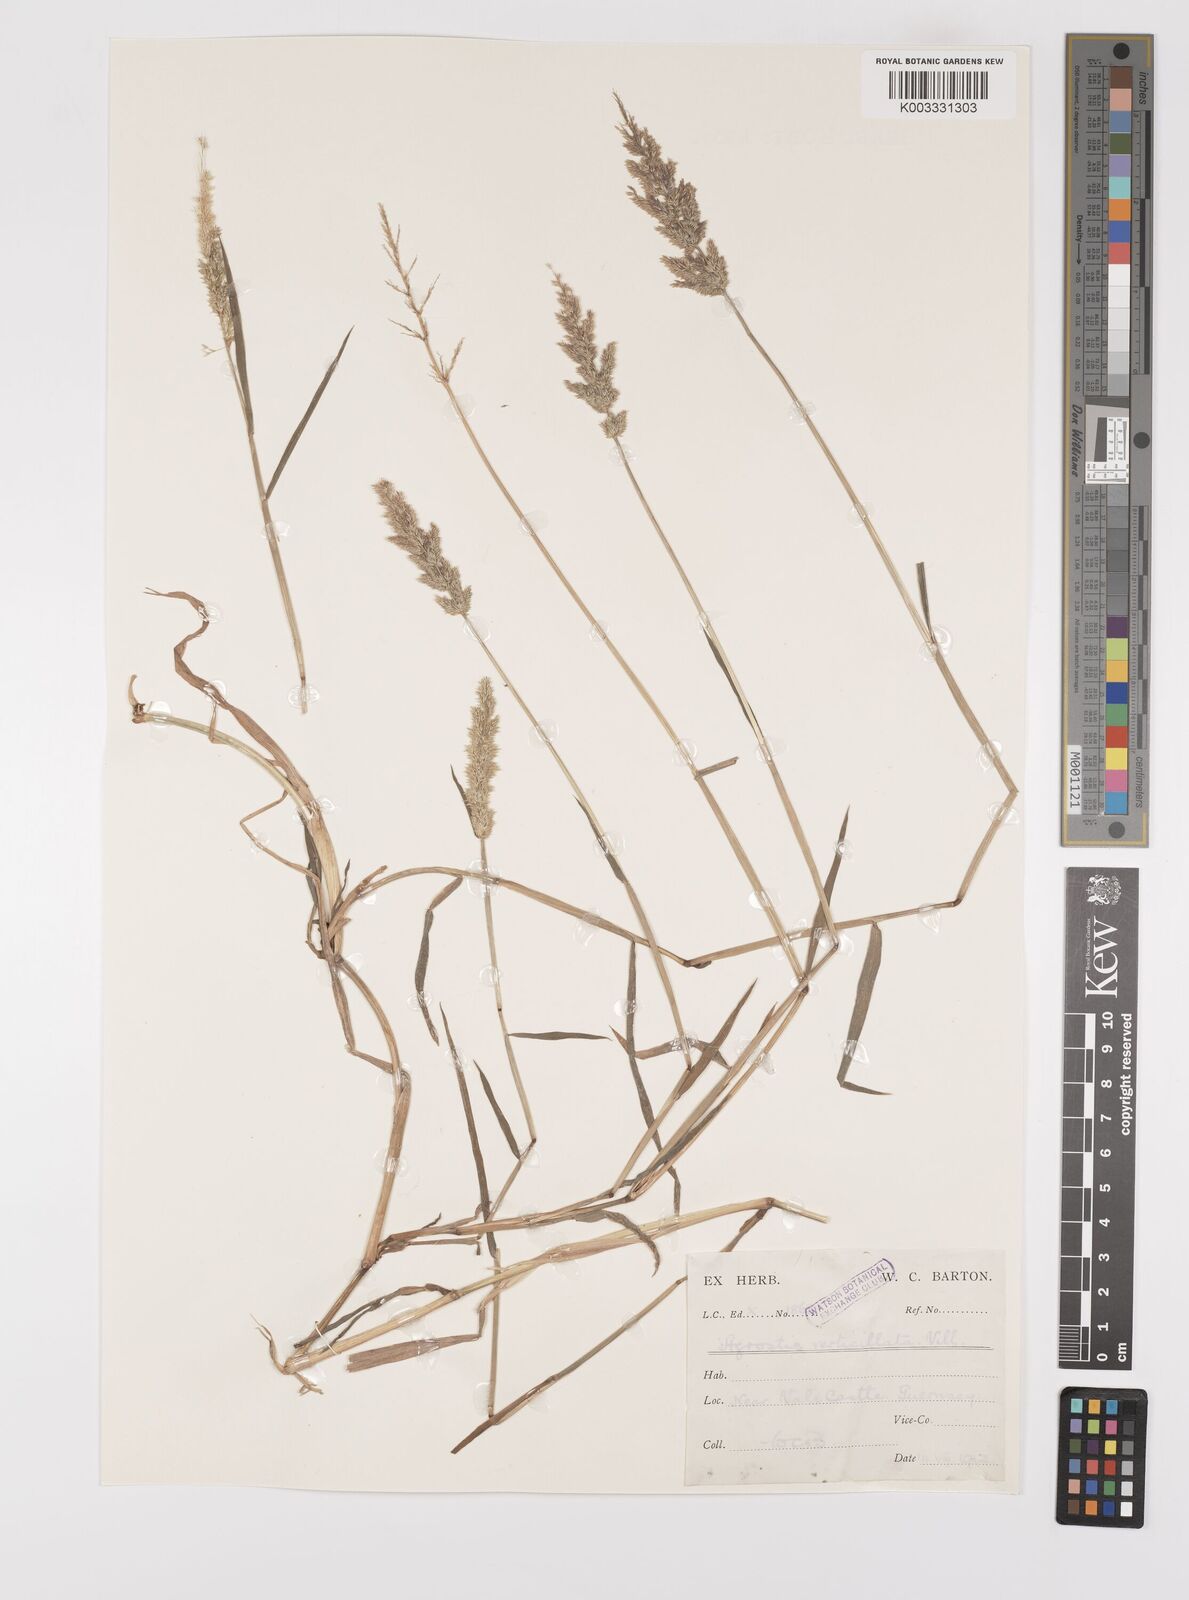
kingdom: Plantae
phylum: Tracheophyta
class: Liliopsida
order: Poales
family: Poaceae
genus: Polypogon
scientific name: Polypogon viridis
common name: Water bent
